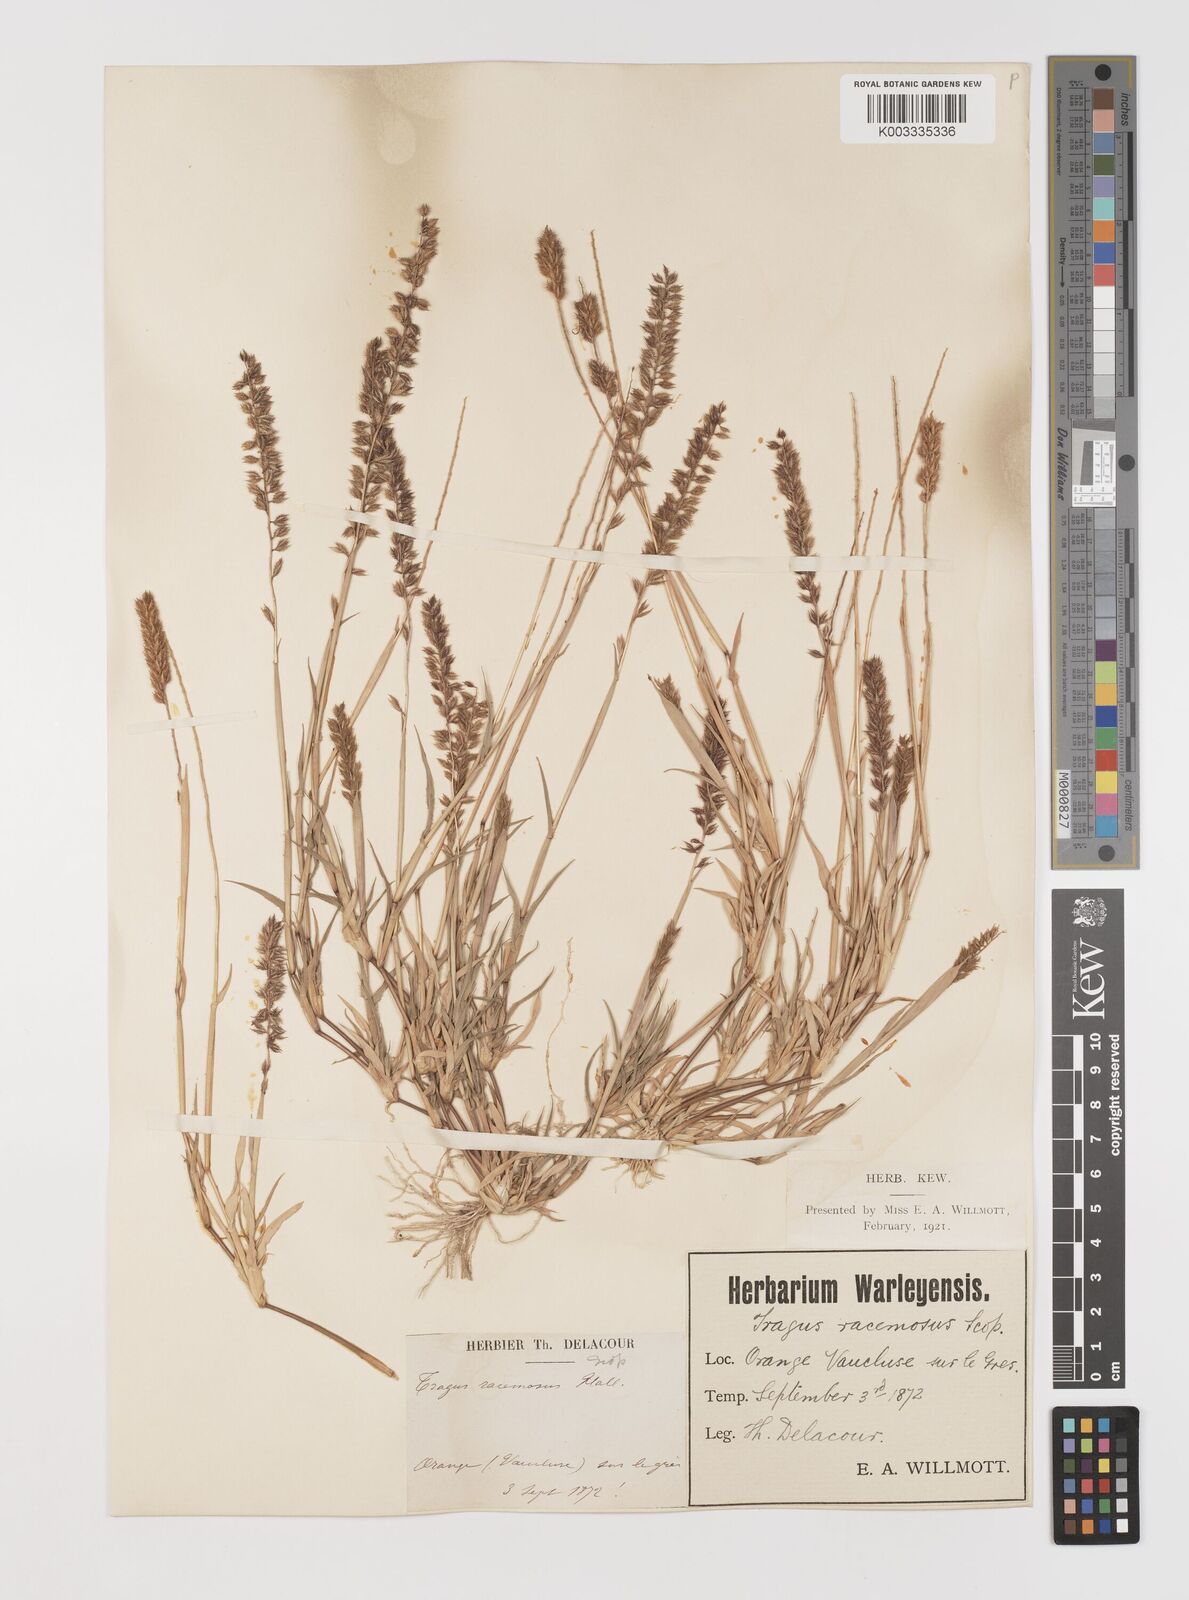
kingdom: Plantae
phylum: Tracheophyta
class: Liliopsida
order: Poales
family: Poaceae
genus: Tragus
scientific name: Tragus racemosus
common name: European bur-grass
